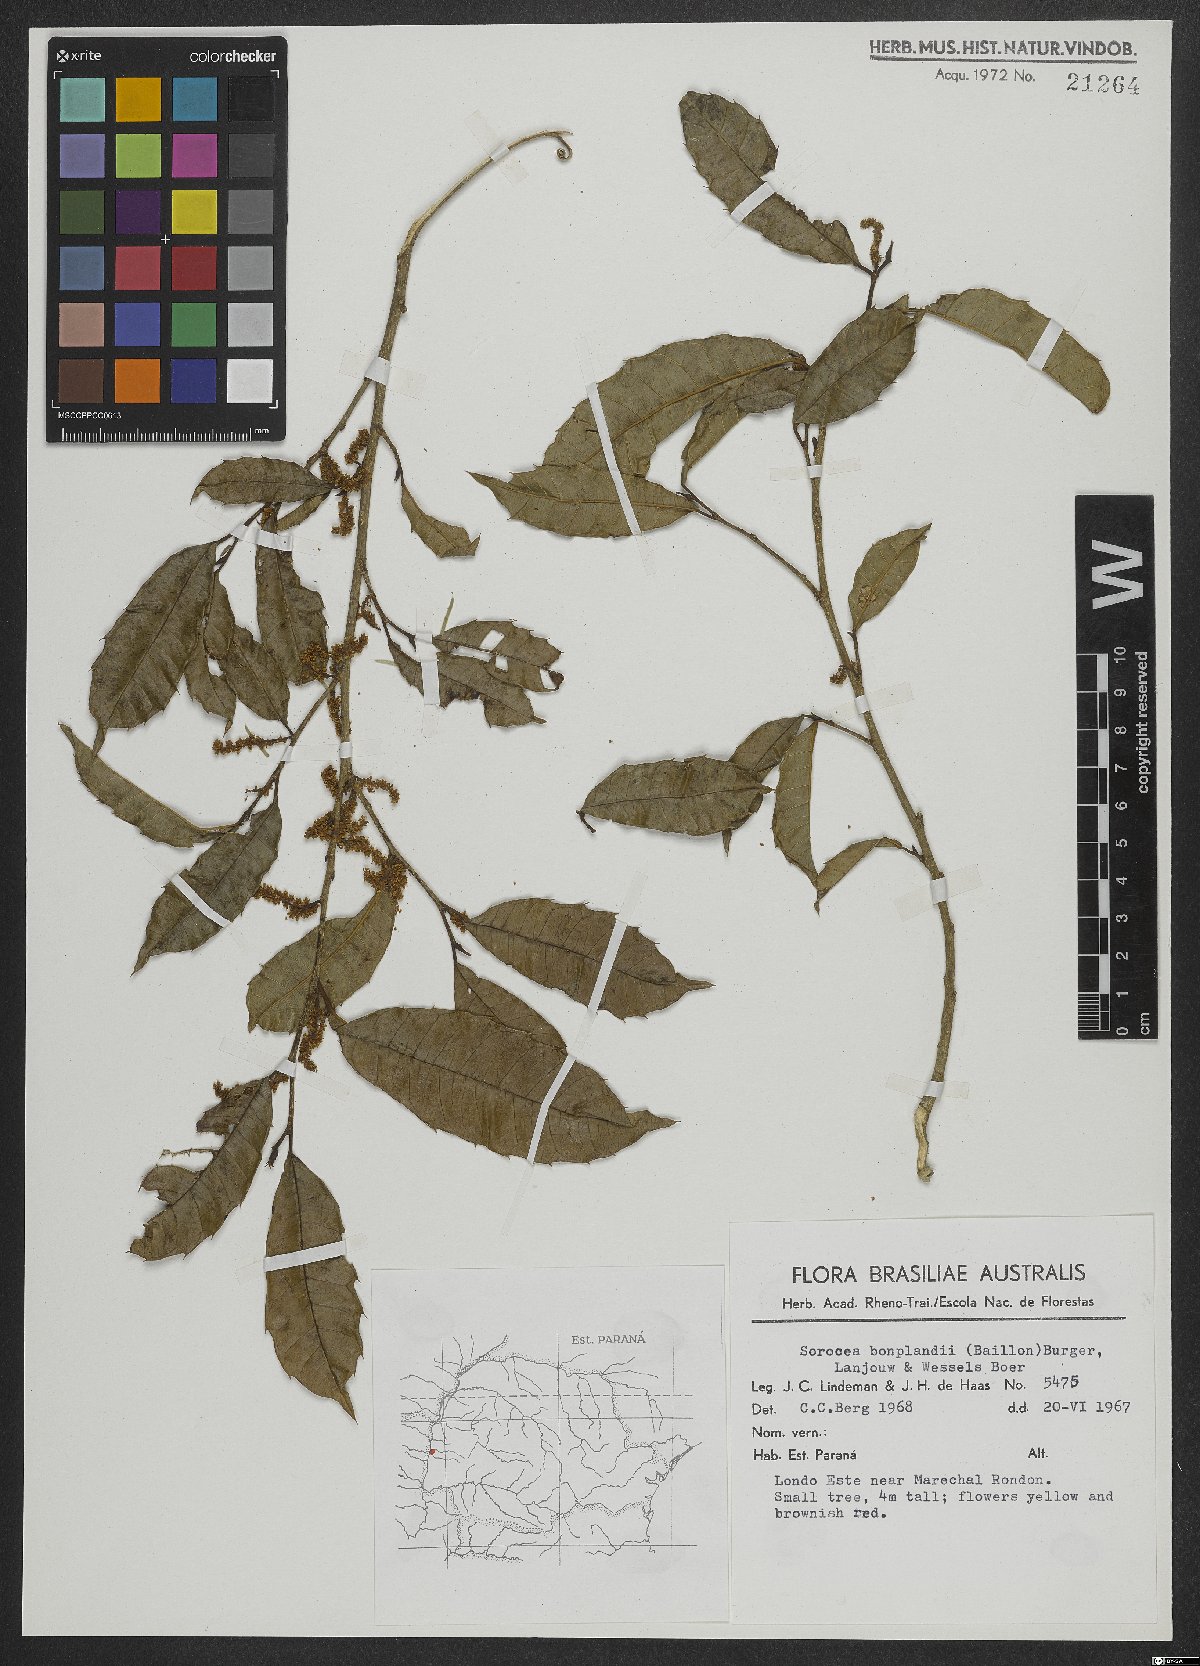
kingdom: Plantae
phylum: Tracheophyta
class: Magnoliopsida
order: Rosales
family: Moraceae
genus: Sorocea
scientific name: Sorocea bonplandii
